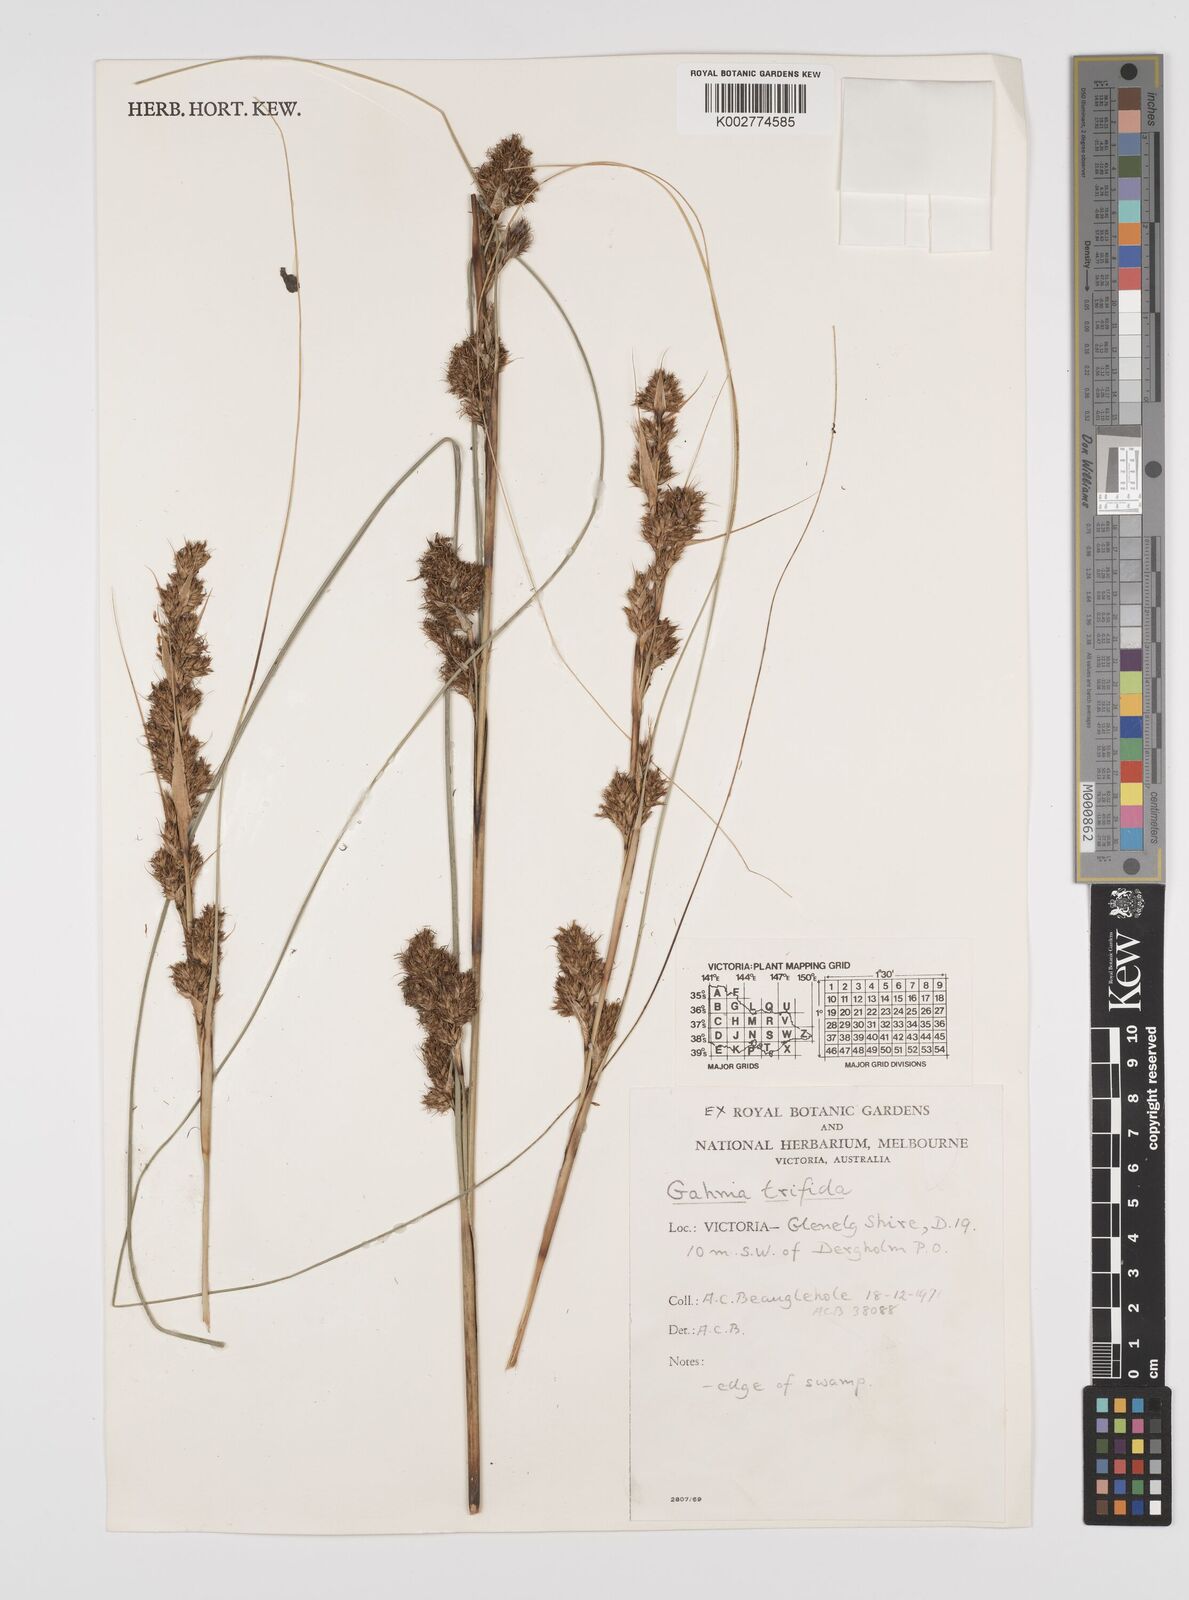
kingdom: Plantae
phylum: Tracheophyta
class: Liliopsida
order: Poales
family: Cyperaceae
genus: Gahnia
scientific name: Gahnia trifida
